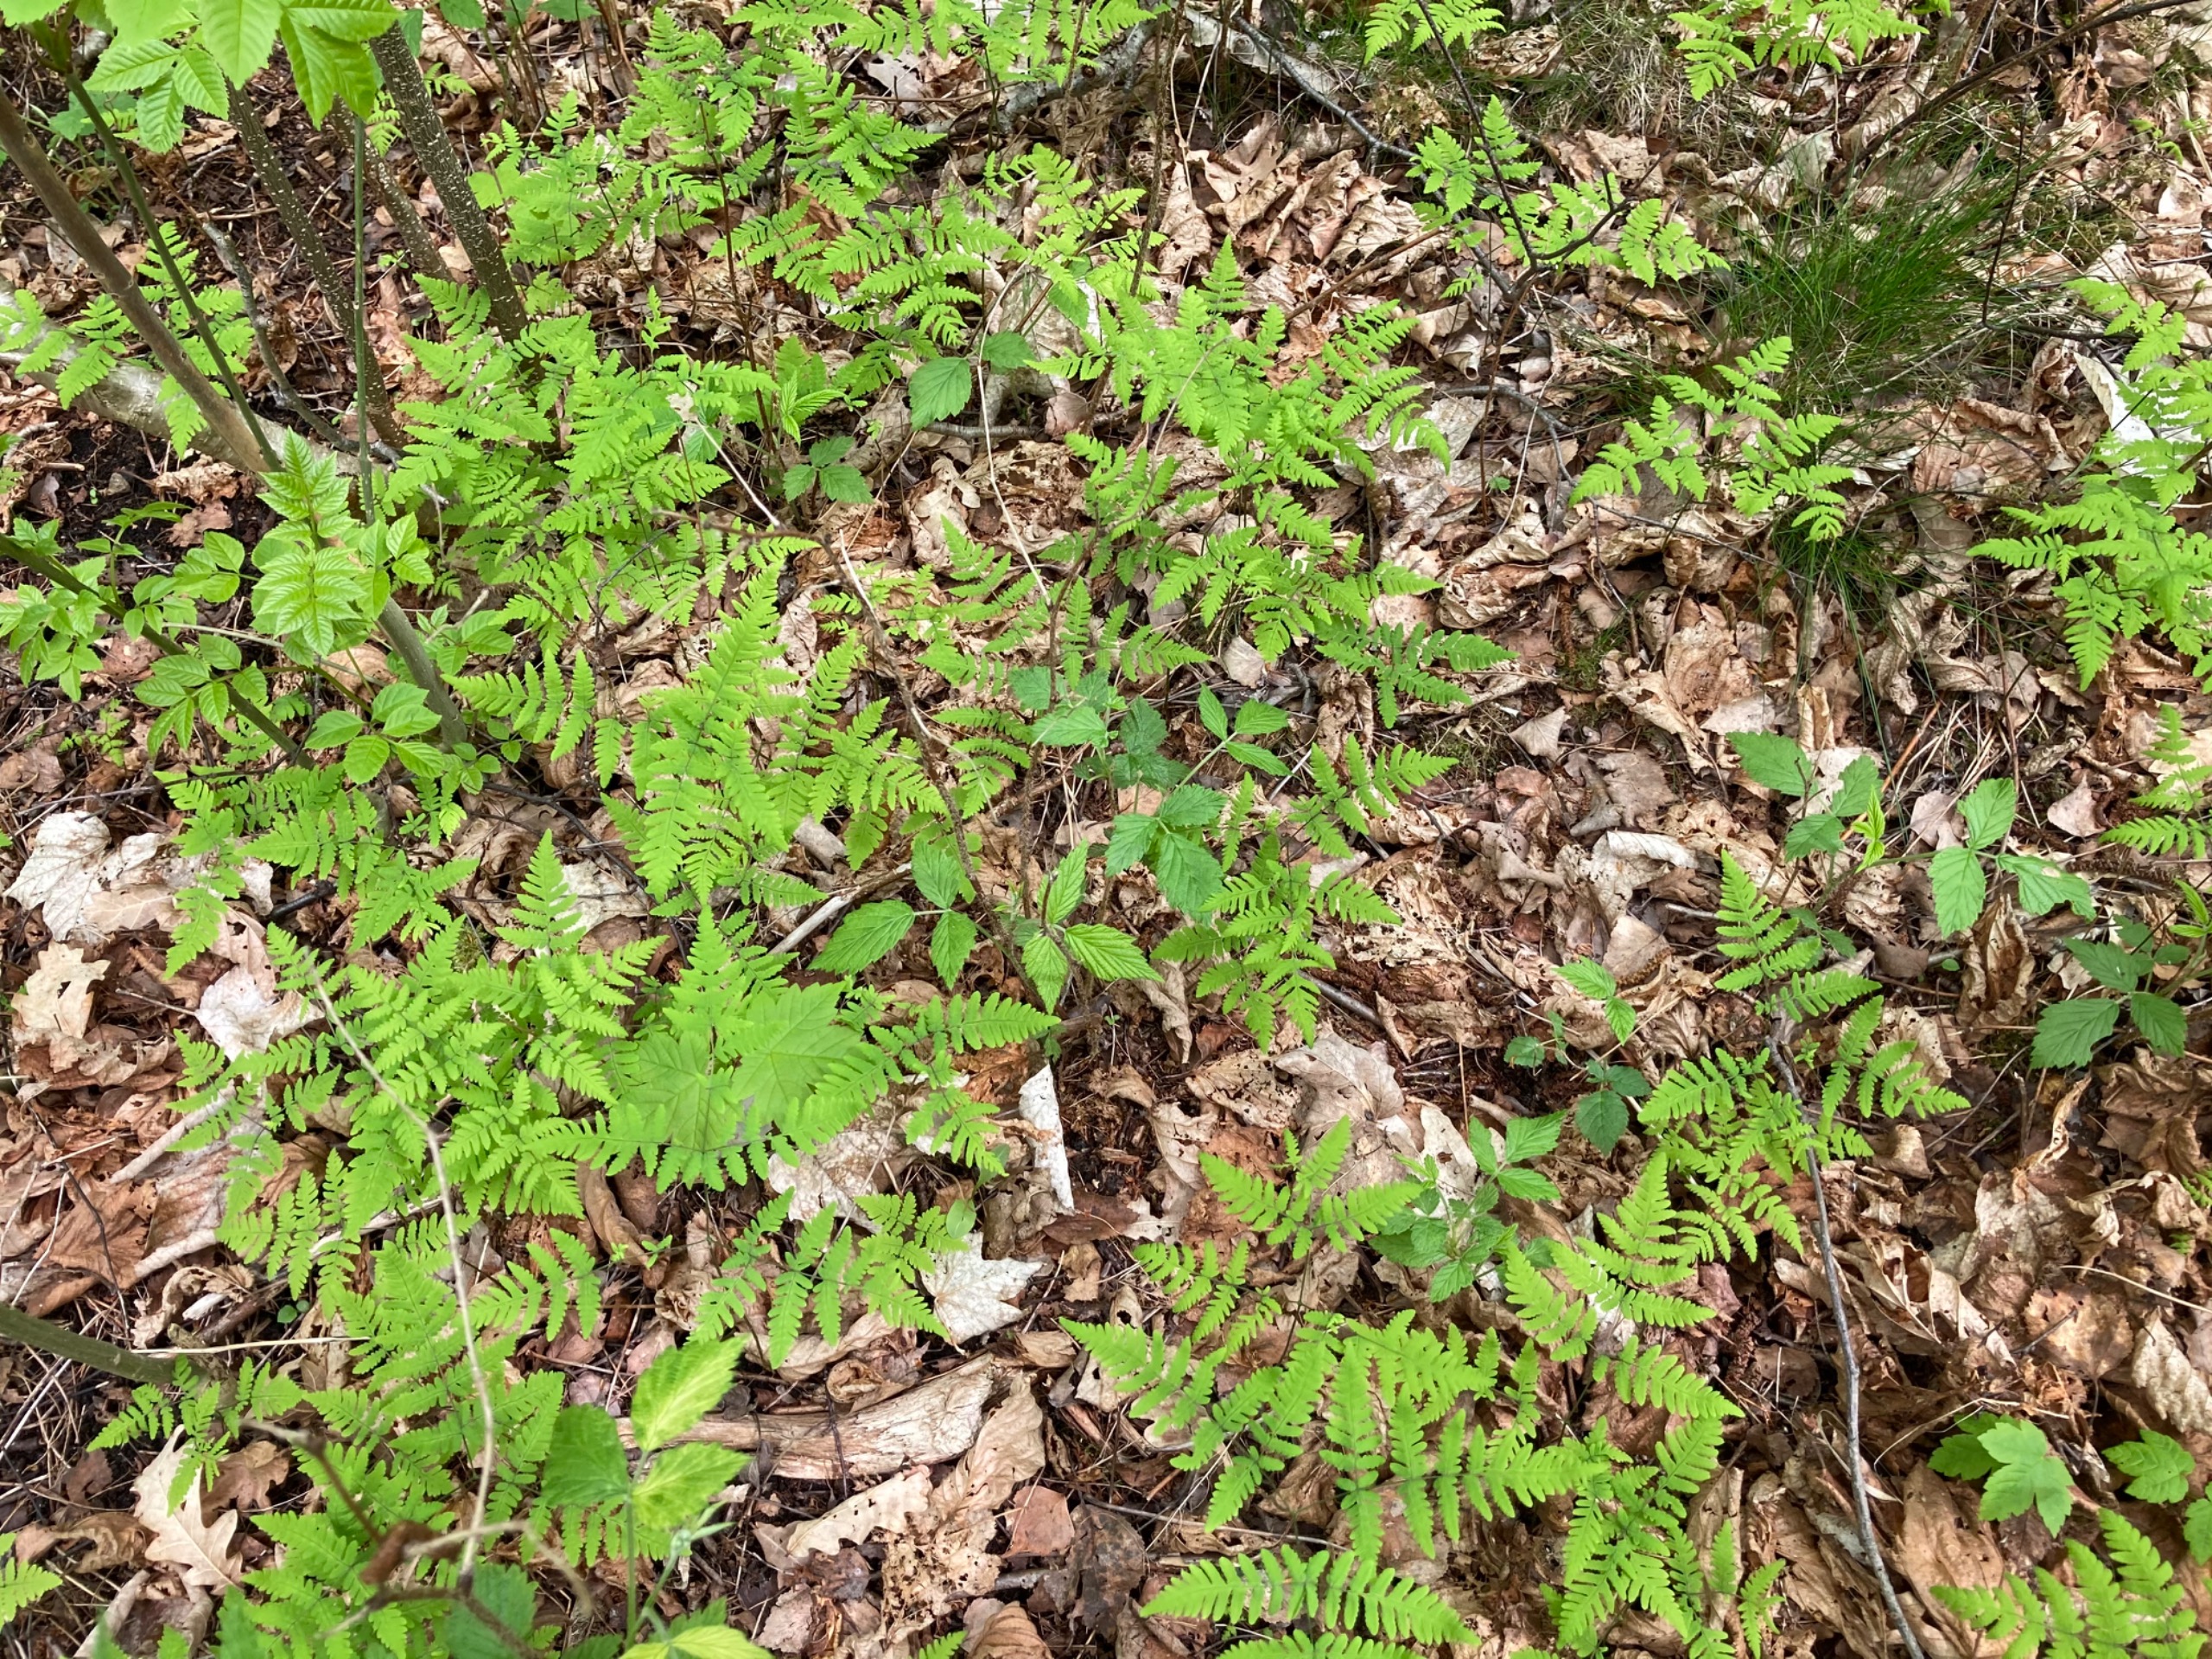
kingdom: Plantae
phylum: Tracheophyta
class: Polypodiopsida
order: Polypodiales
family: Cystopteridaceae
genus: Gymnocarpium
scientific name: Gymnocarpium dryopteris
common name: Tredelt egebregne
